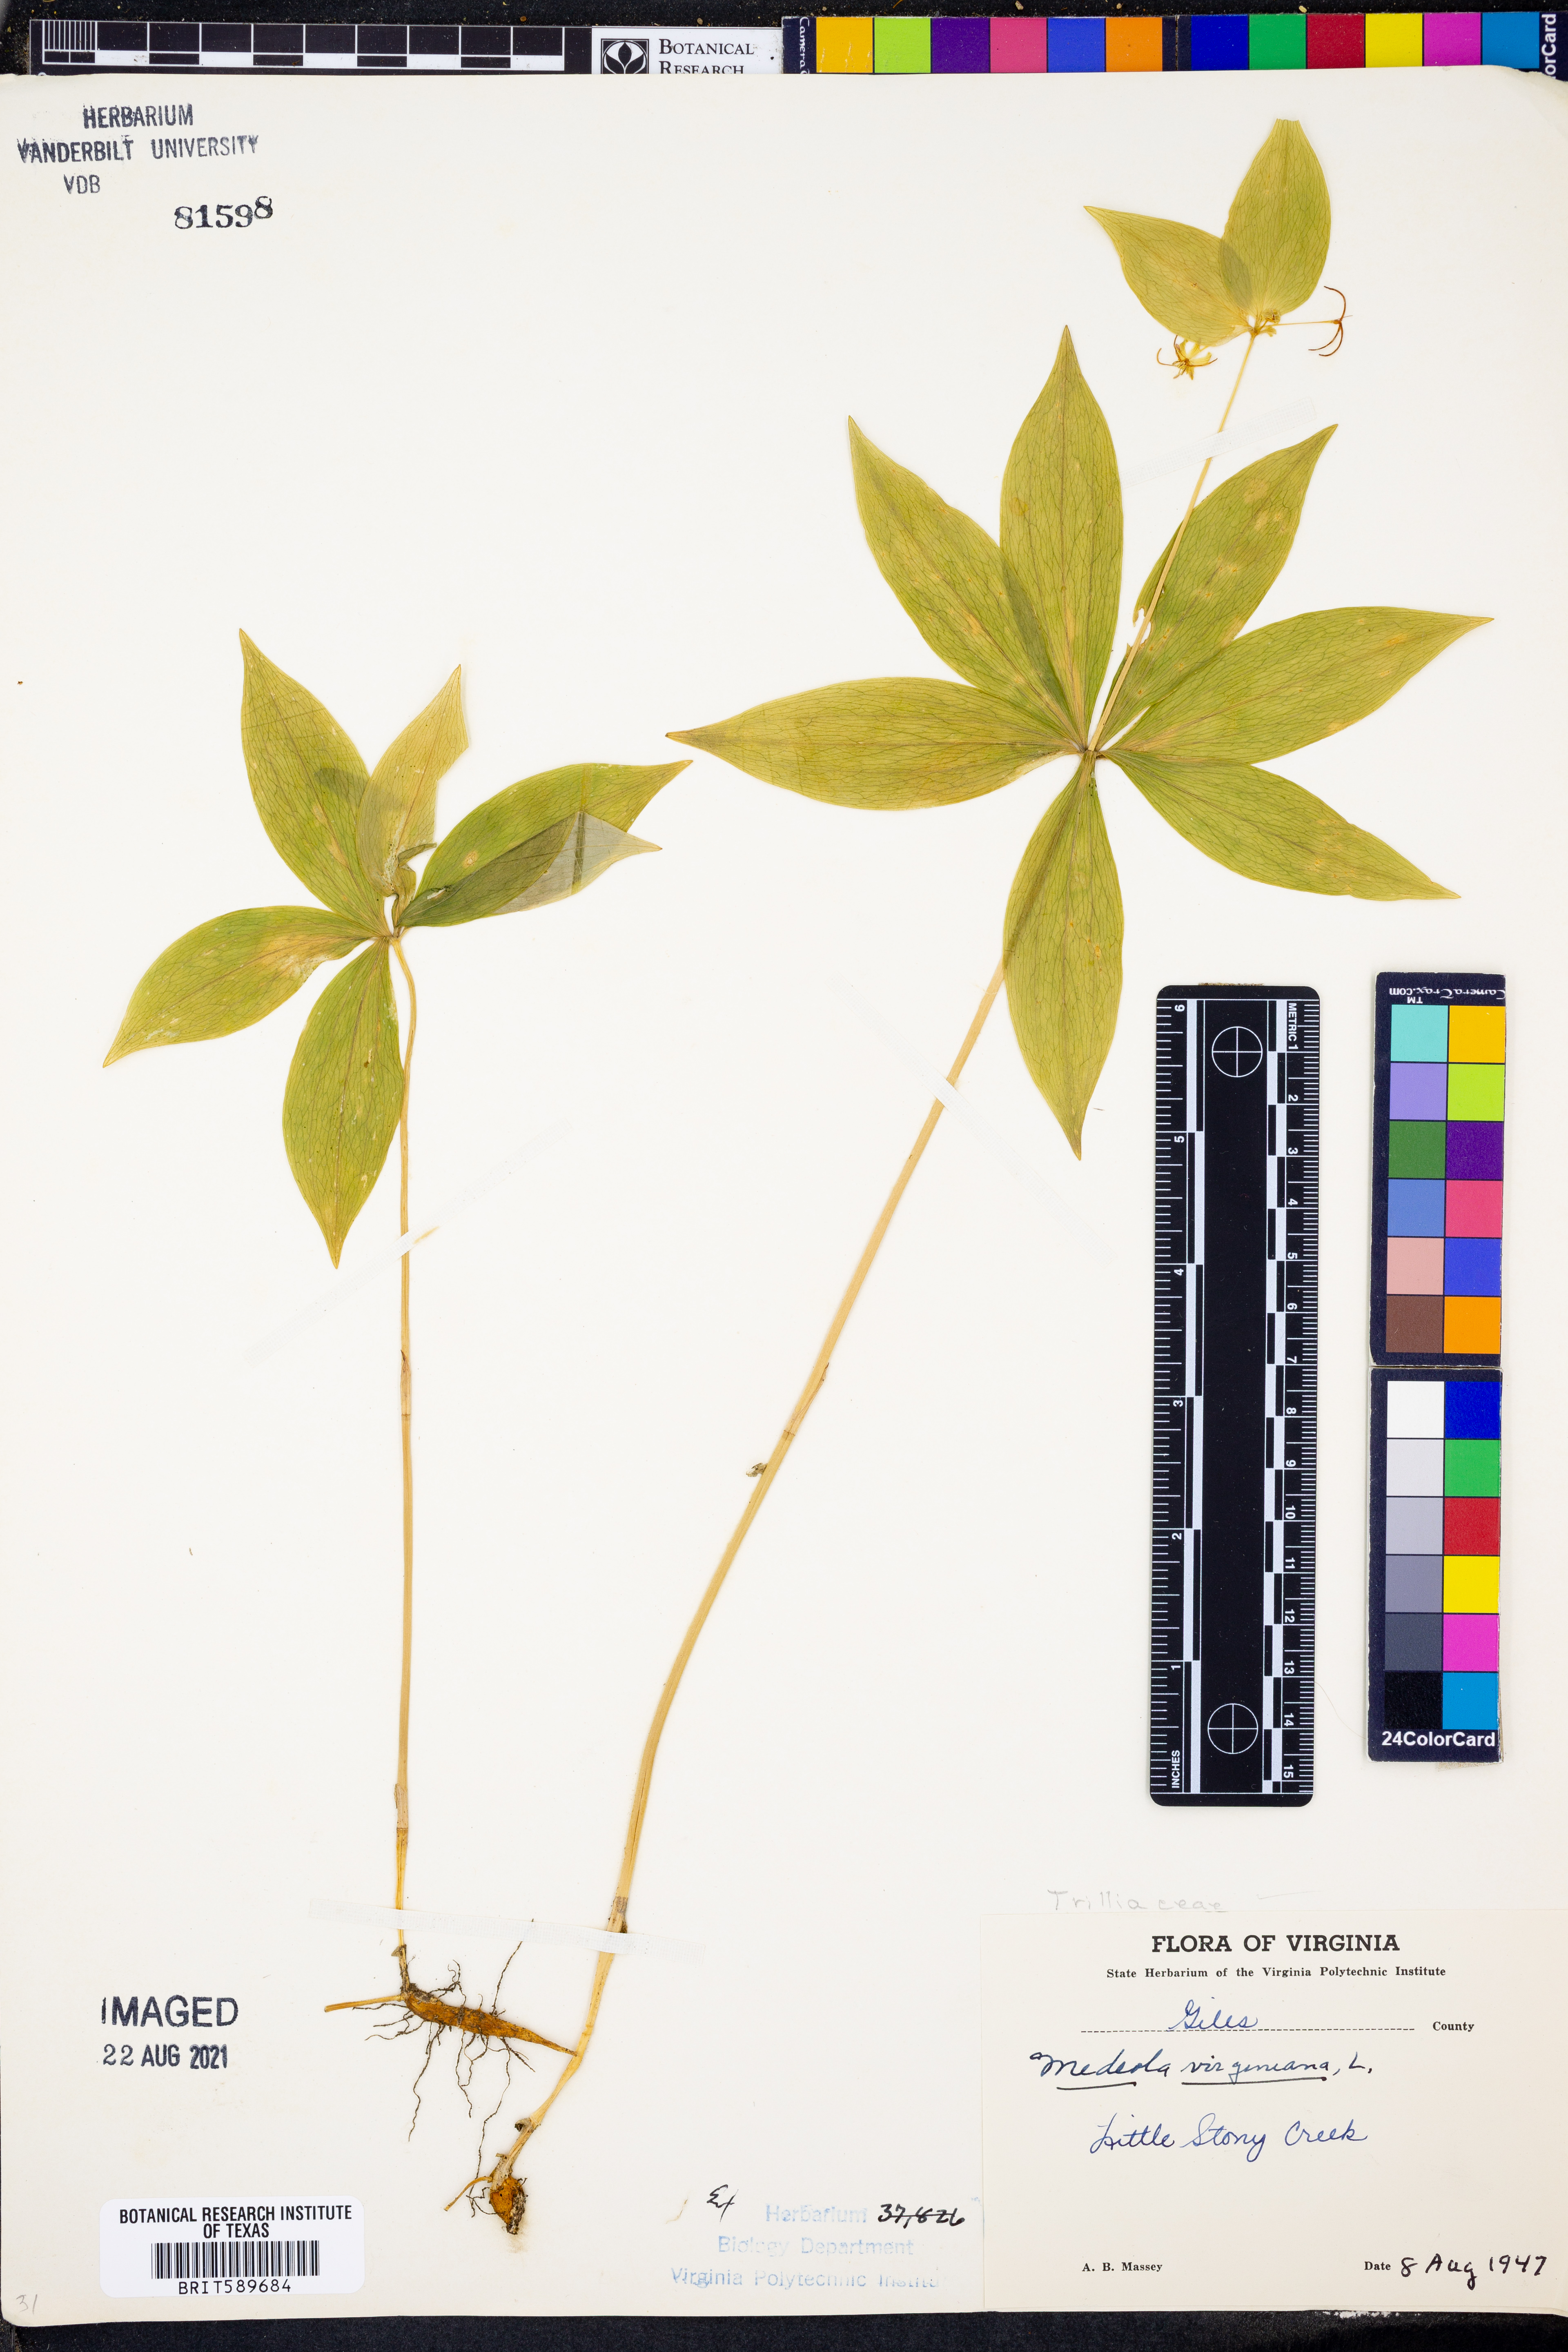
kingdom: Plantae
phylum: Tracheophyta
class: Liliopsida
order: Liliales
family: Liliaceae
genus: Medeola
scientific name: Medeola virginiana
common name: Indian cucumber-root
